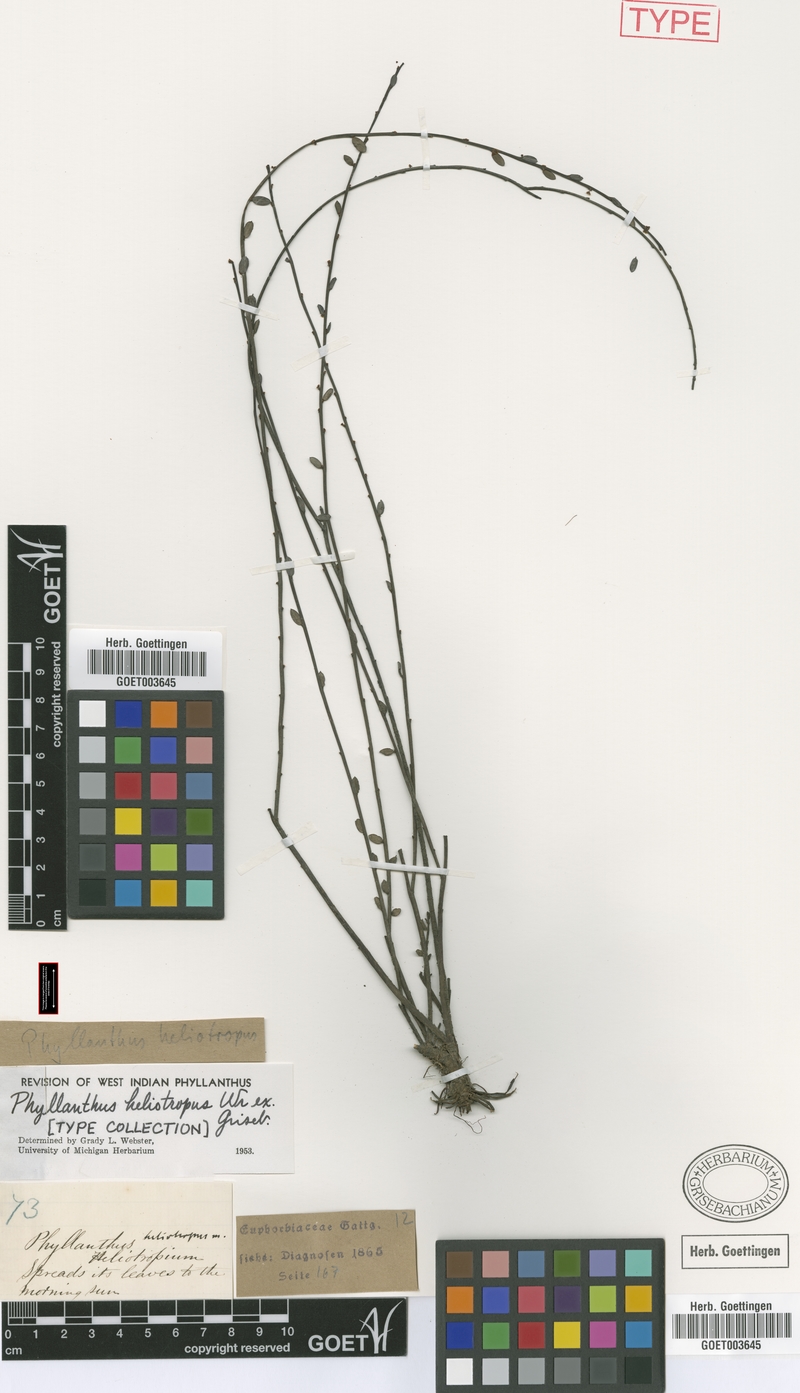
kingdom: Plantae
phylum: Tracheophyta
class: Magnoliopsida
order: Malpighiales
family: Phyllanthaceae
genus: Phyllanthus
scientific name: Phyllanthus heliotropus
